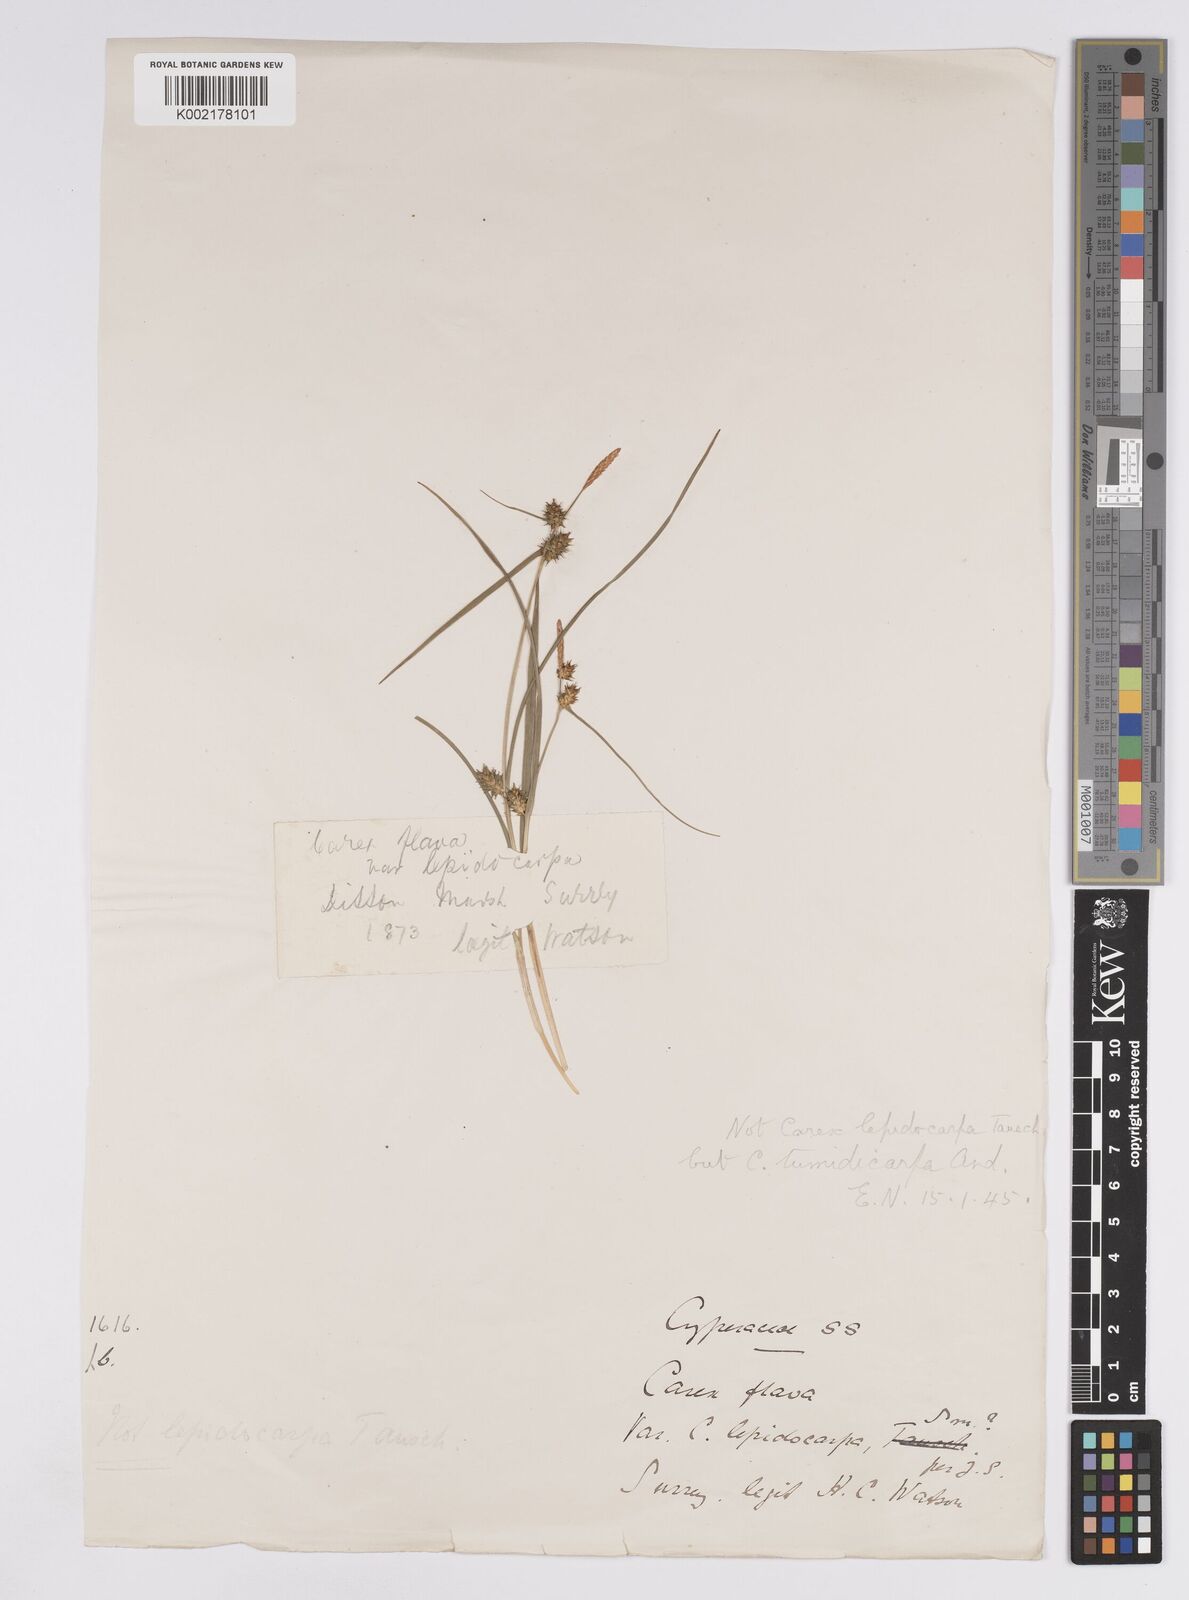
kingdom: Plantae
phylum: Tracheophyta
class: Liliopsida
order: Poales
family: Cyperaceae
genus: Carex
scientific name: Carex demissa
